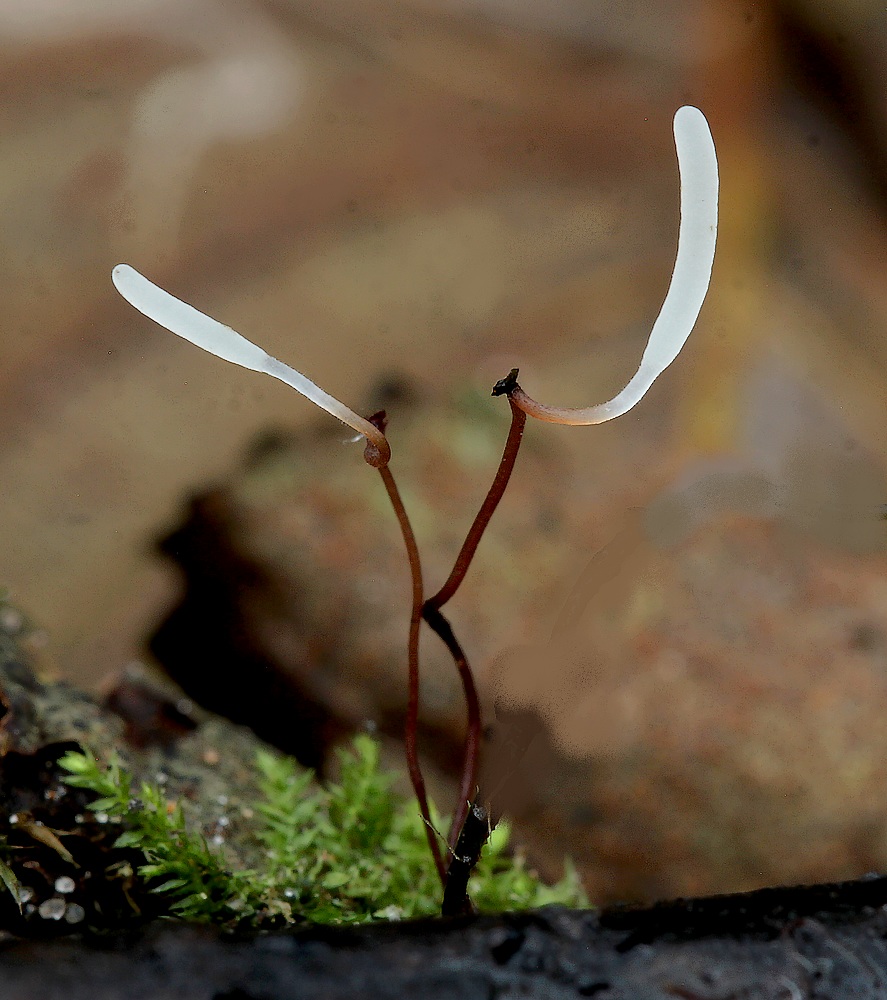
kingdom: Fungi
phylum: Basidiomycota
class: Agaricomycetes
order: Agaricales
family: Typhulaceae
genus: Typhula
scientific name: Typhula erythropus
